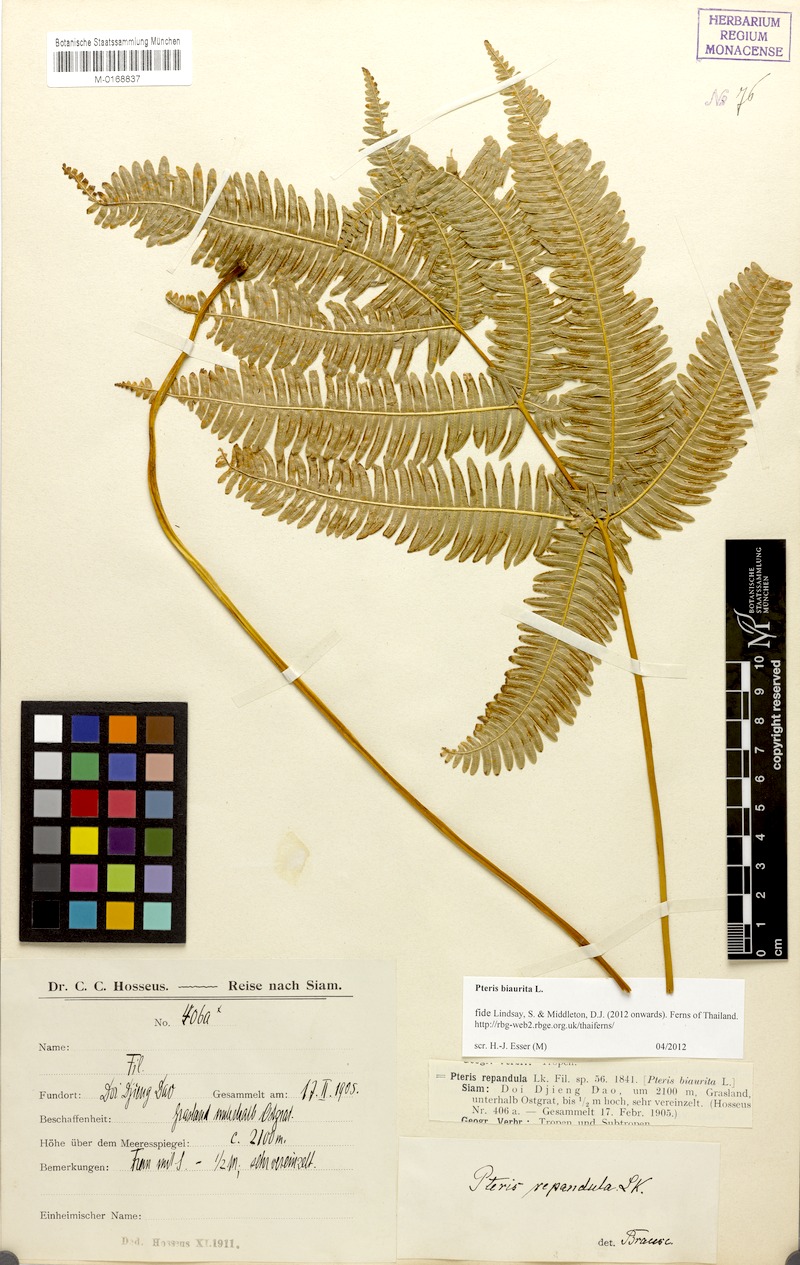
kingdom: Plantae
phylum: Tracheophyta
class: Polypodiopsida
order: Polypodiales
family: Pteridaceae
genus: Pteris
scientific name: Pteris biaurita
